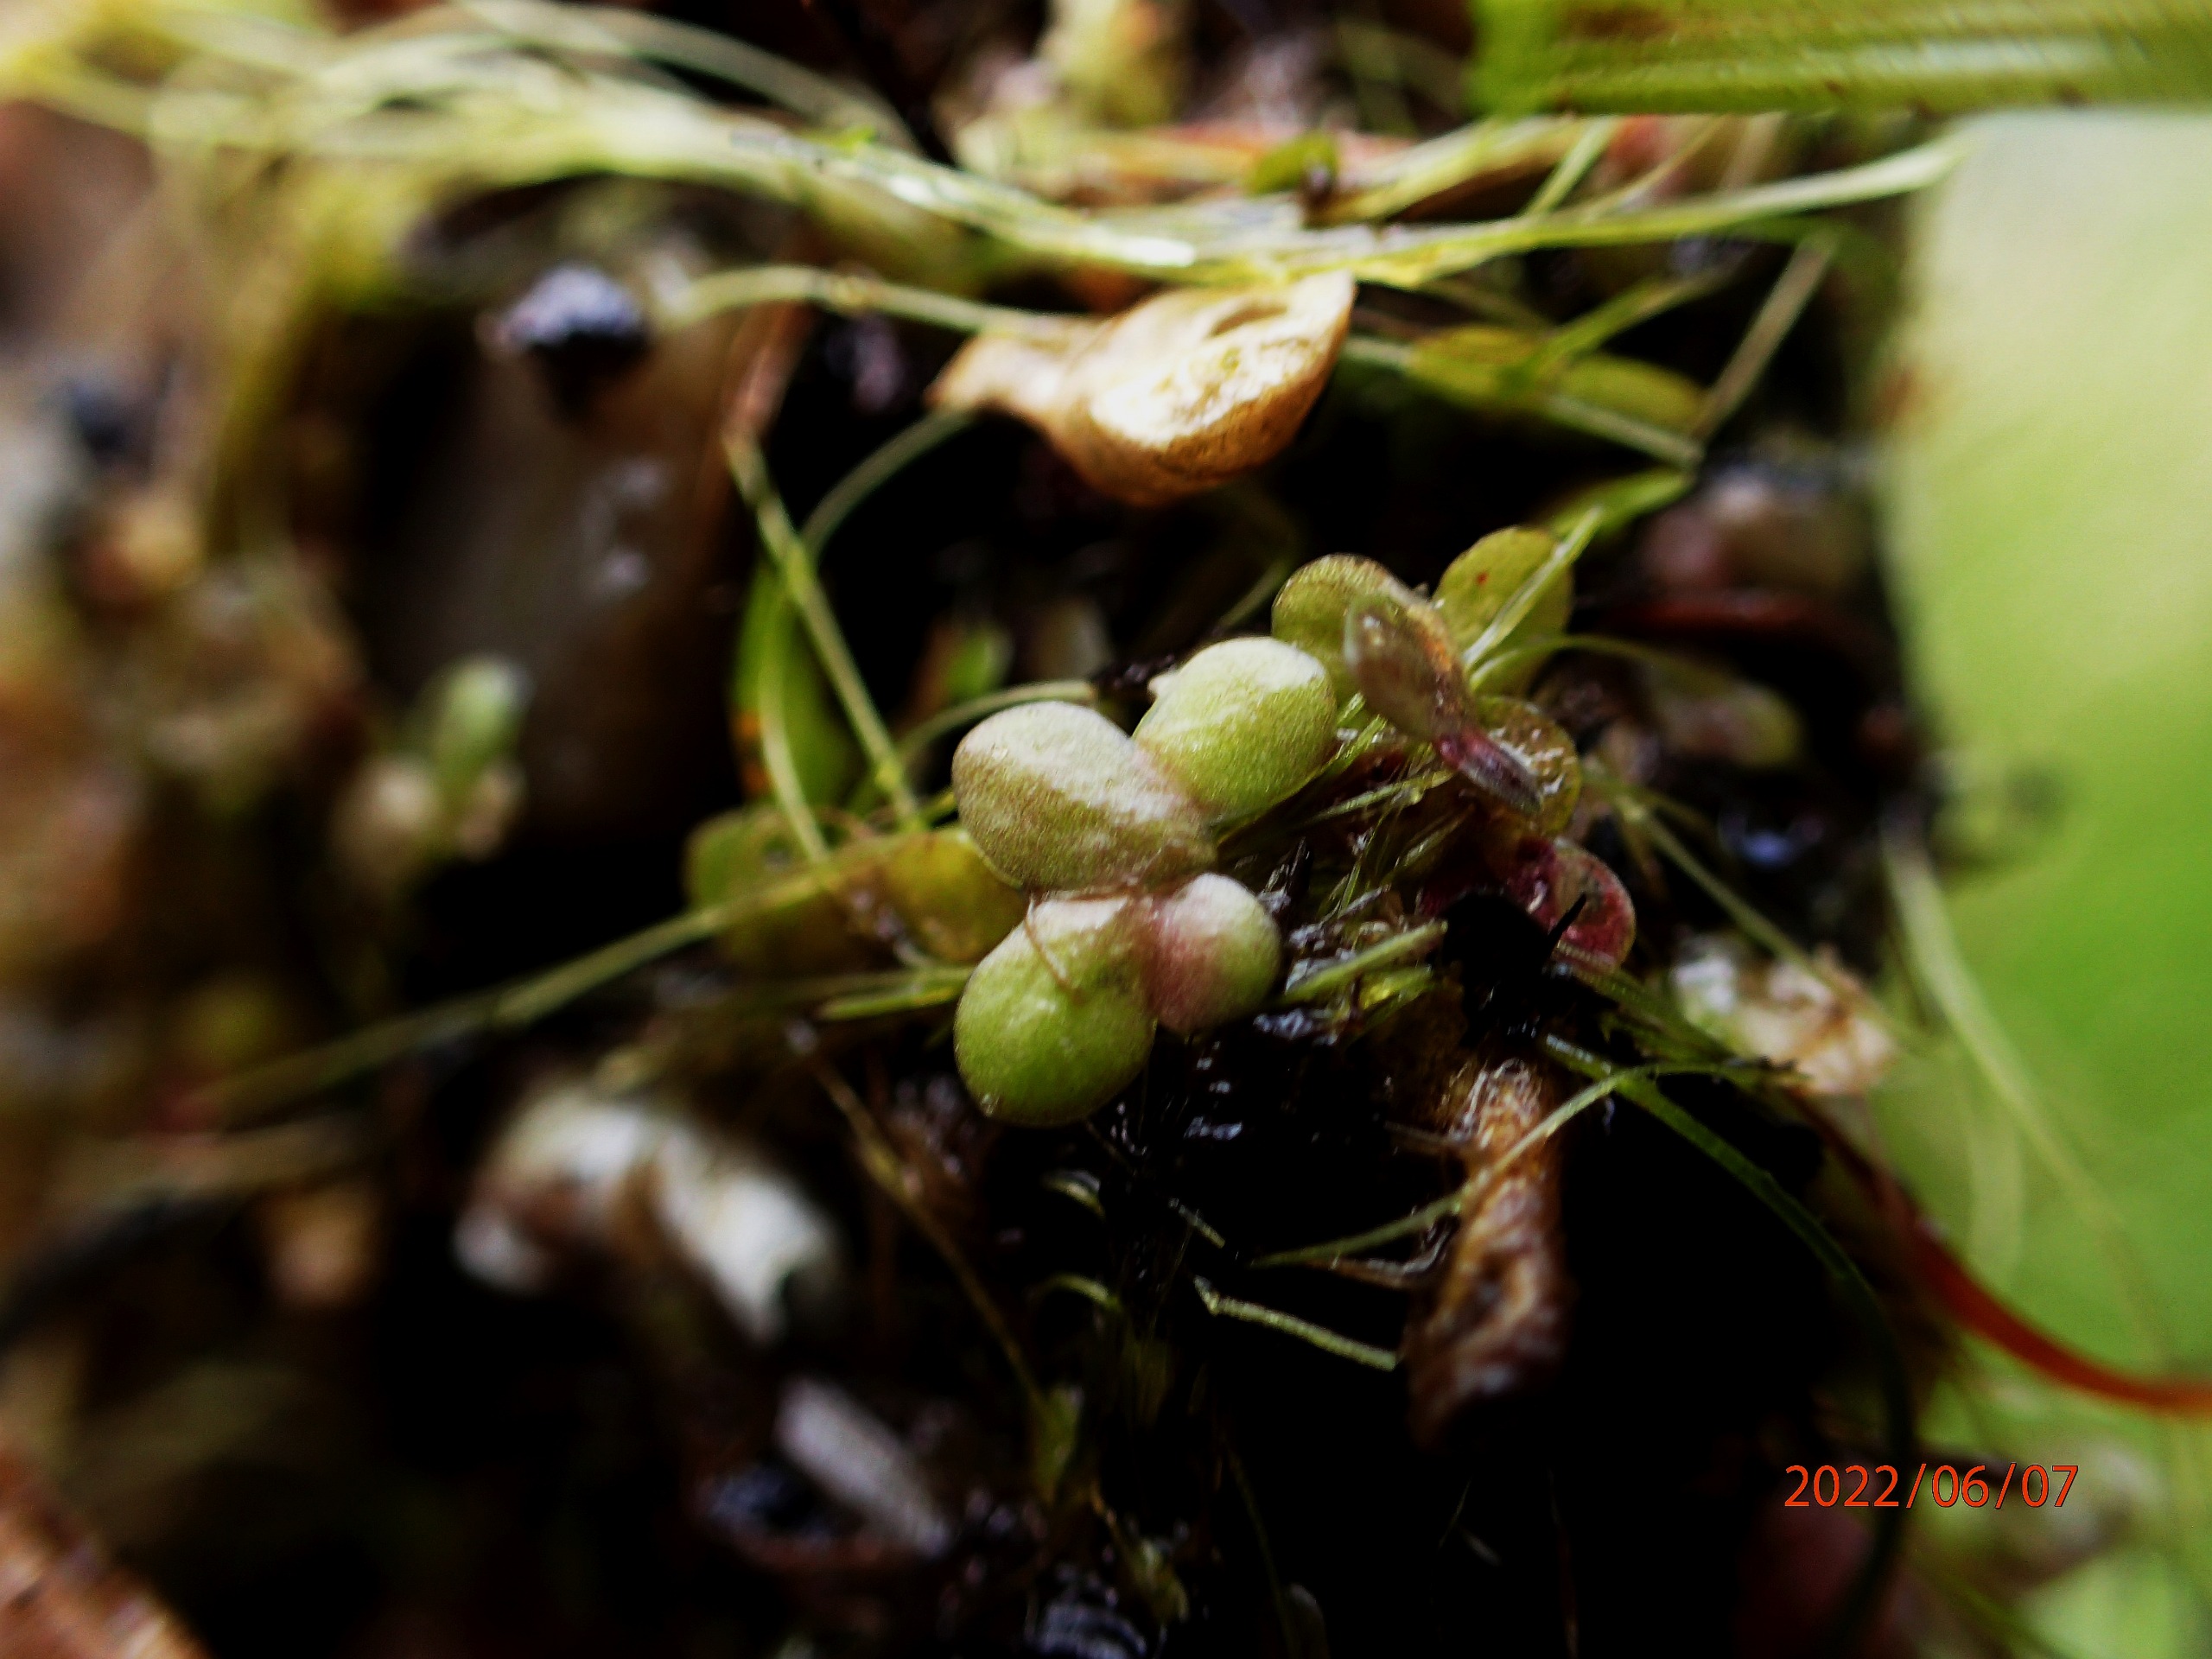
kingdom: Plantae
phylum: Tracheophyta
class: Liliopsida
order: Alismatales
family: Araceae
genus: Lemna
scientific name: Lemna turionifera
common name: Rød andemad
